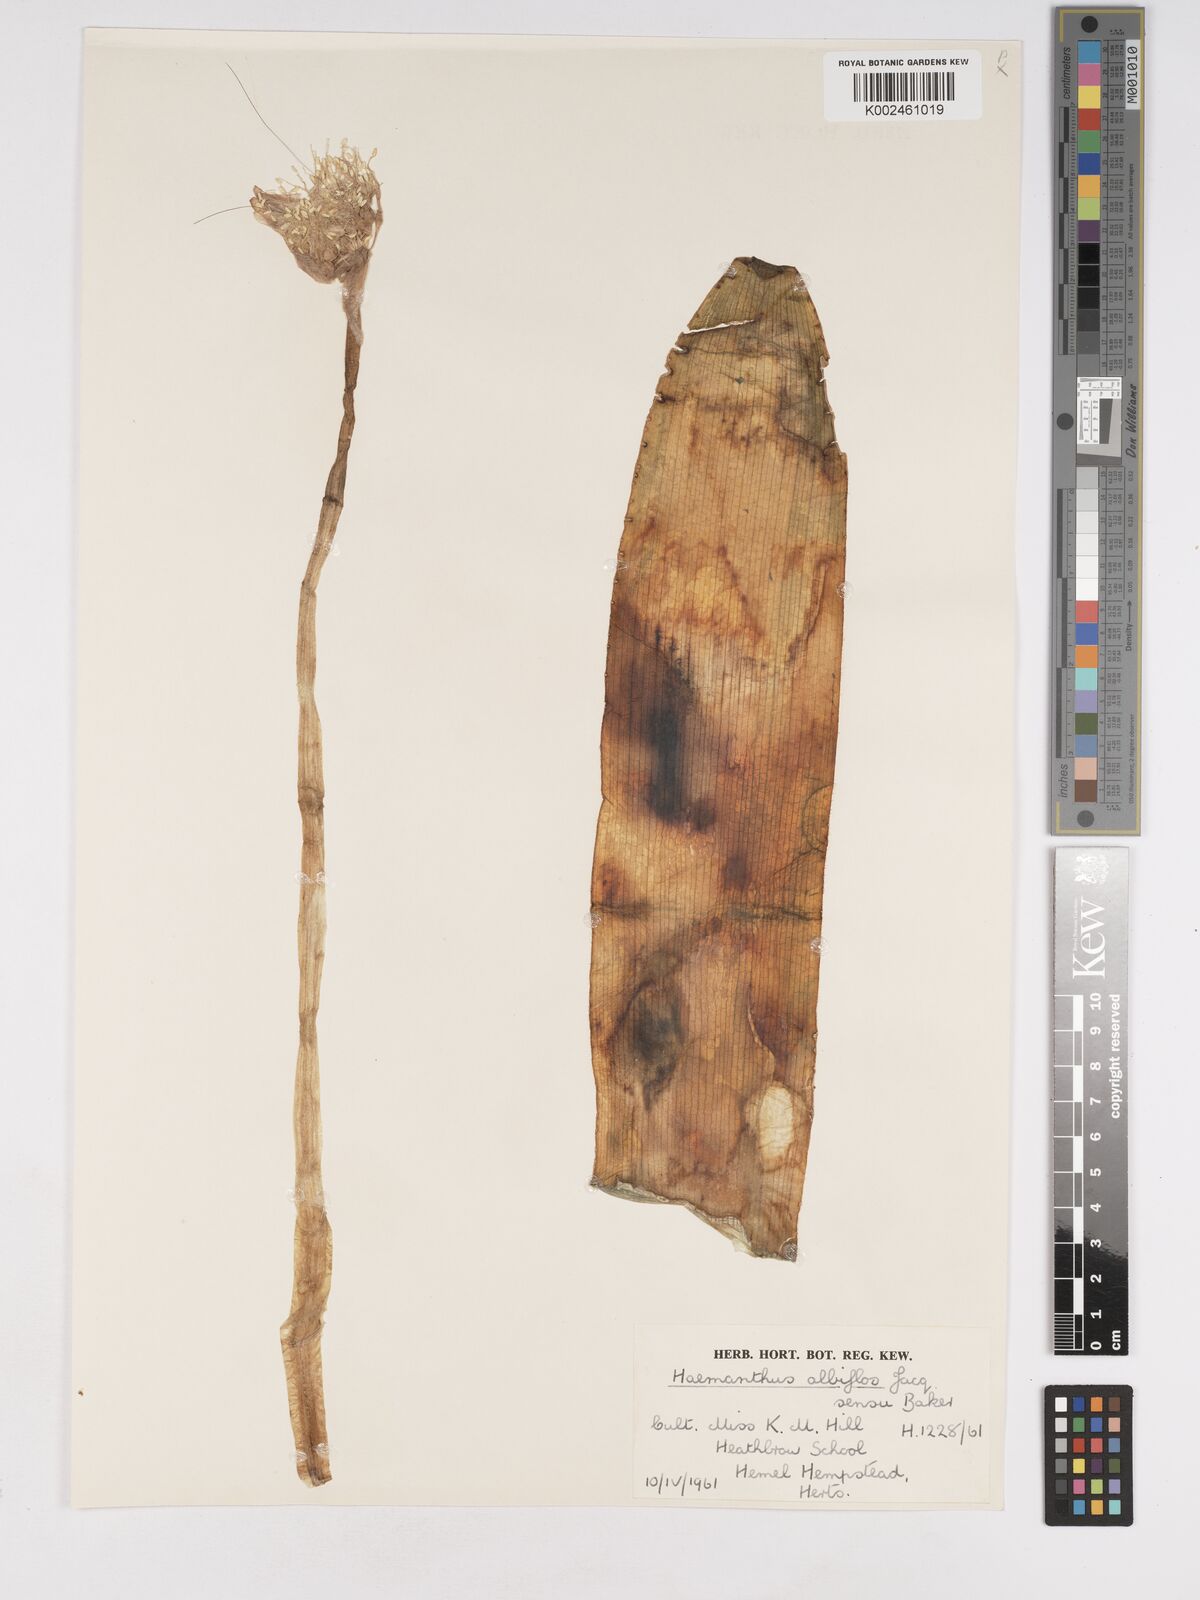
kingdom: Plantae
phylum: Tracheophyta
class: Liliopsida
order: Asparagales
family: Amaryllidaceae
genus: Haemanthus
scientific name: Haemanthus albiflos
